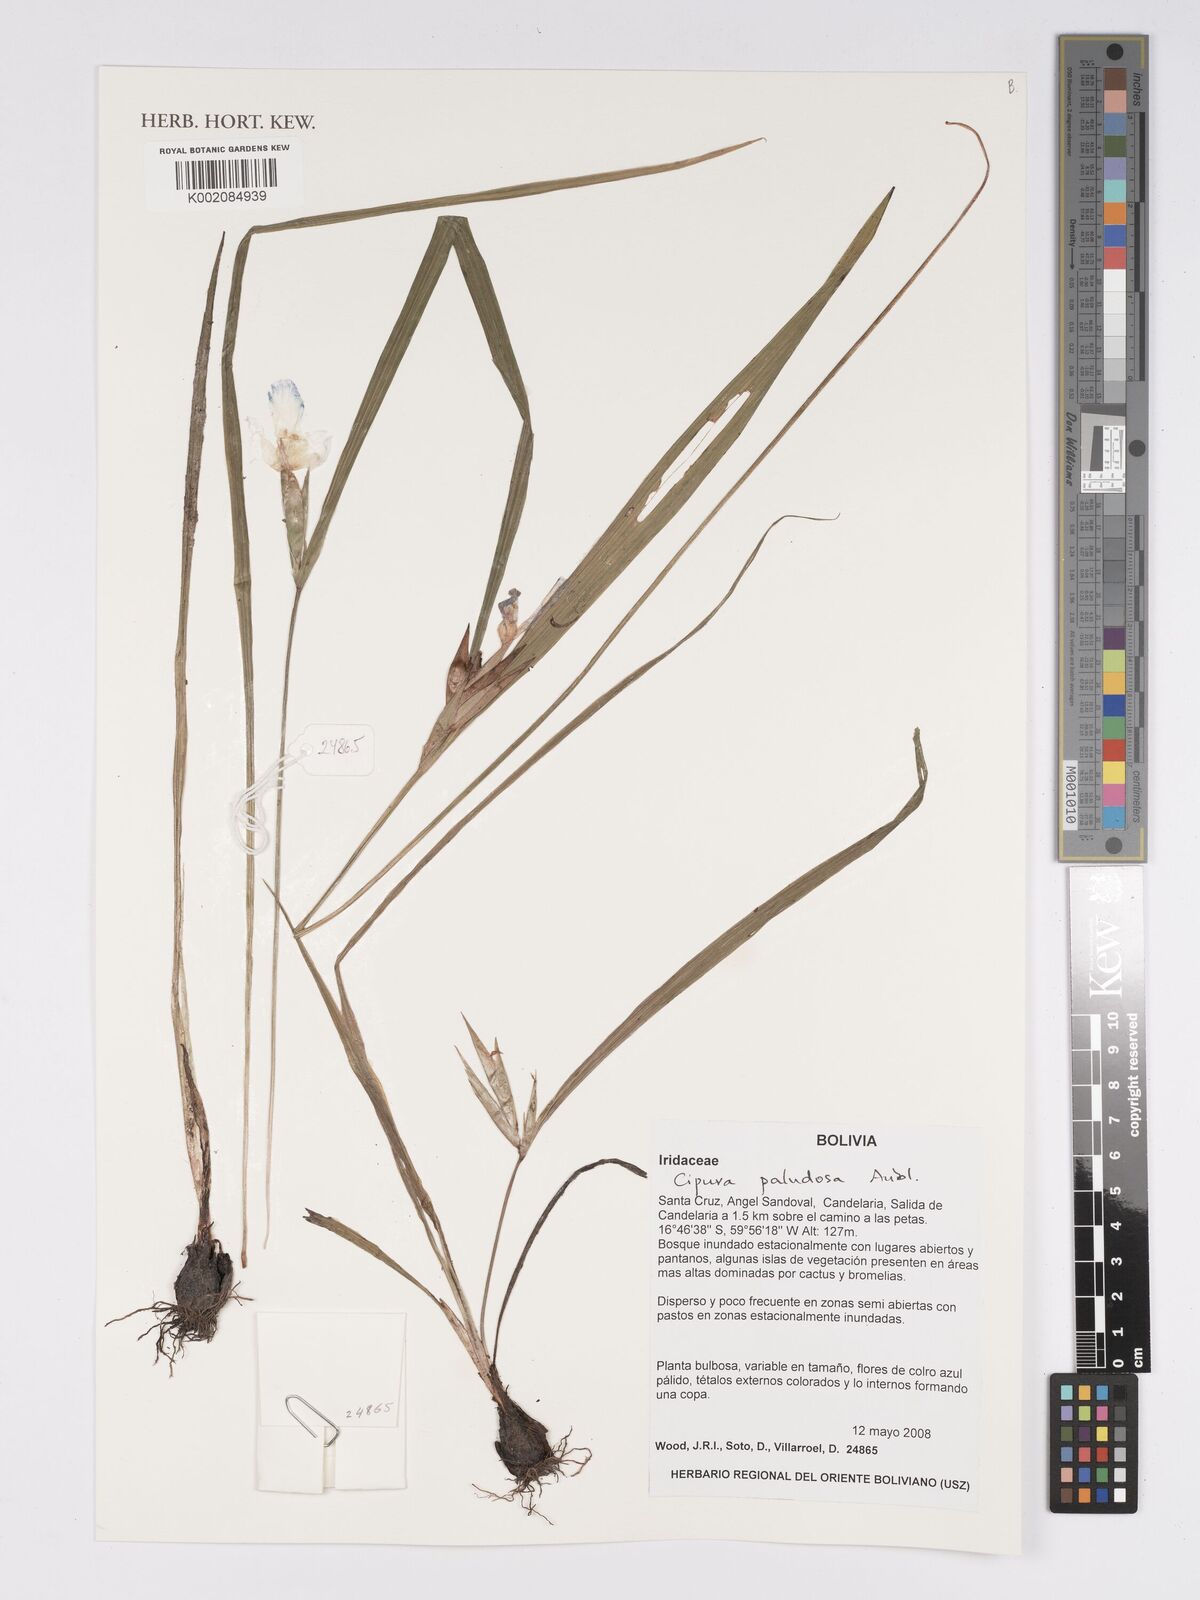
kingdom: Plantae
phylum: Tracheophyta
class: Liliopsida
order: Asparagales
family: Iridaceae
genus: Cipura
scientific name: Cipura paludosa
